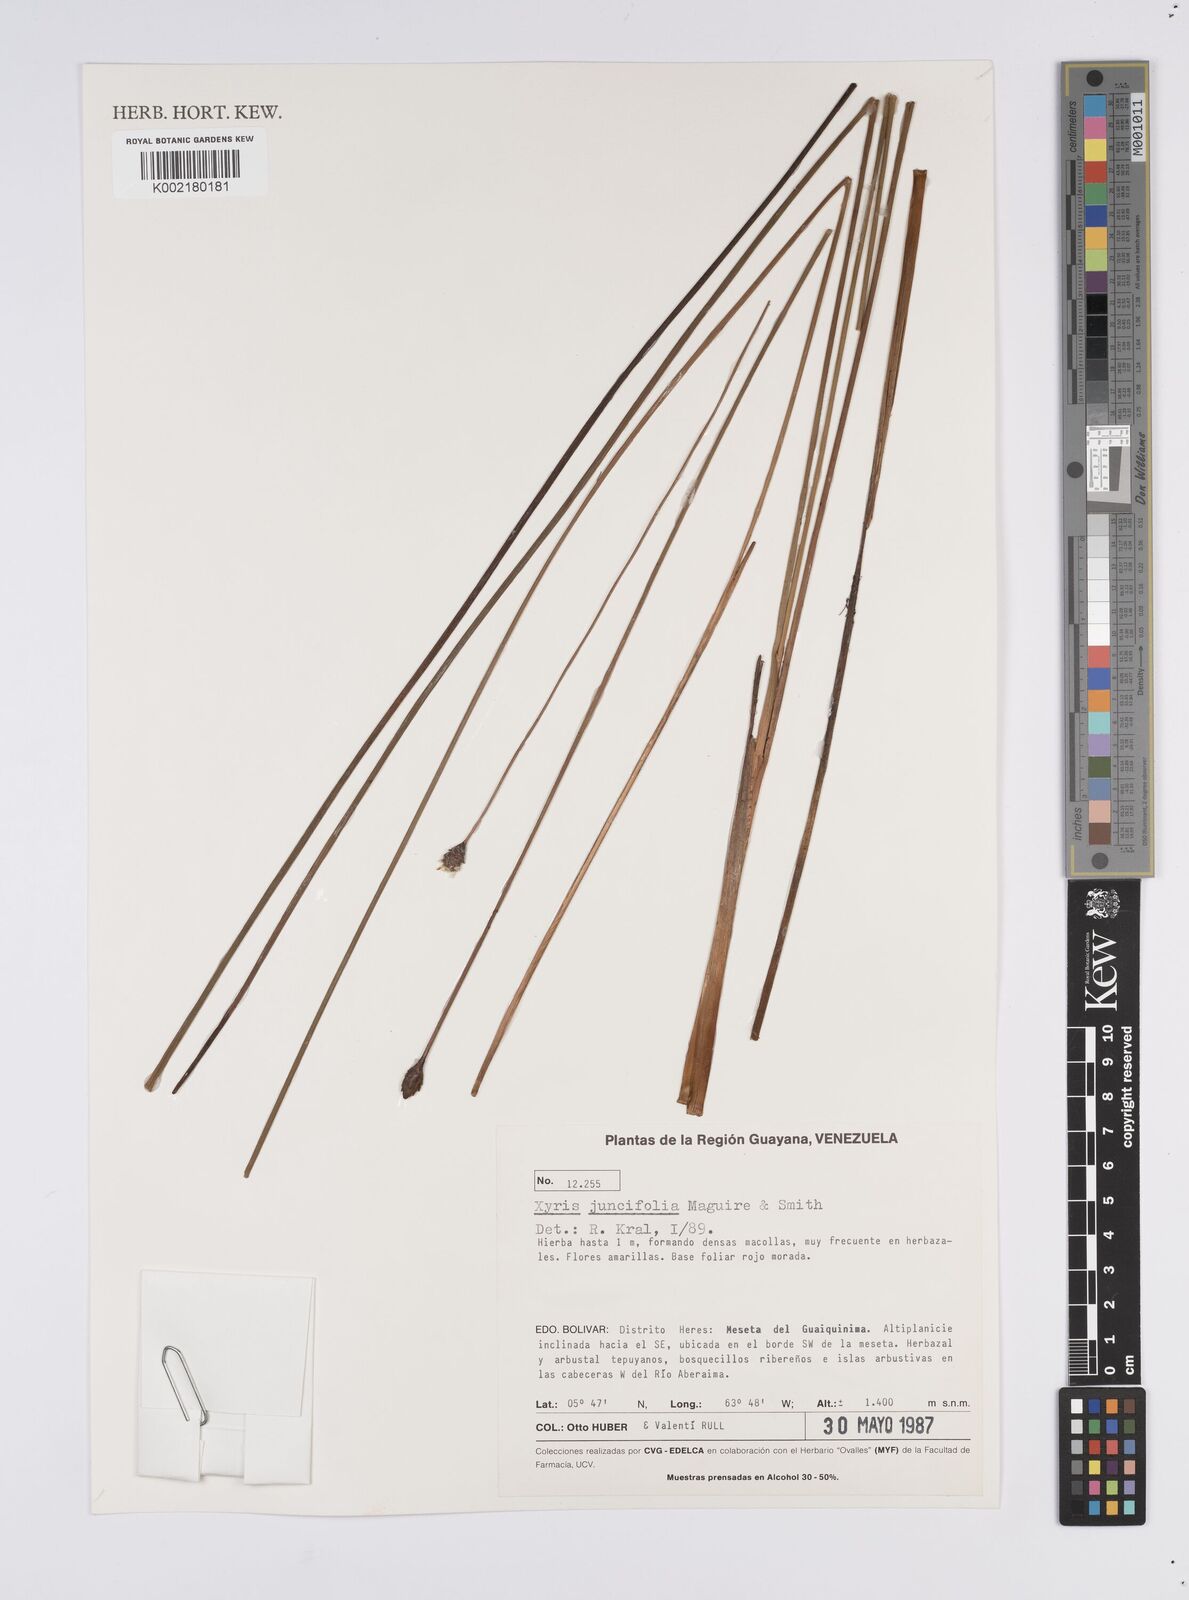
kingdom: Plantae
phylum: Tracheophyta
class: Liliopsida
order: Poales
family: Xyridaceae
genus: Xyris
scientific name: Xyris juncifolia
